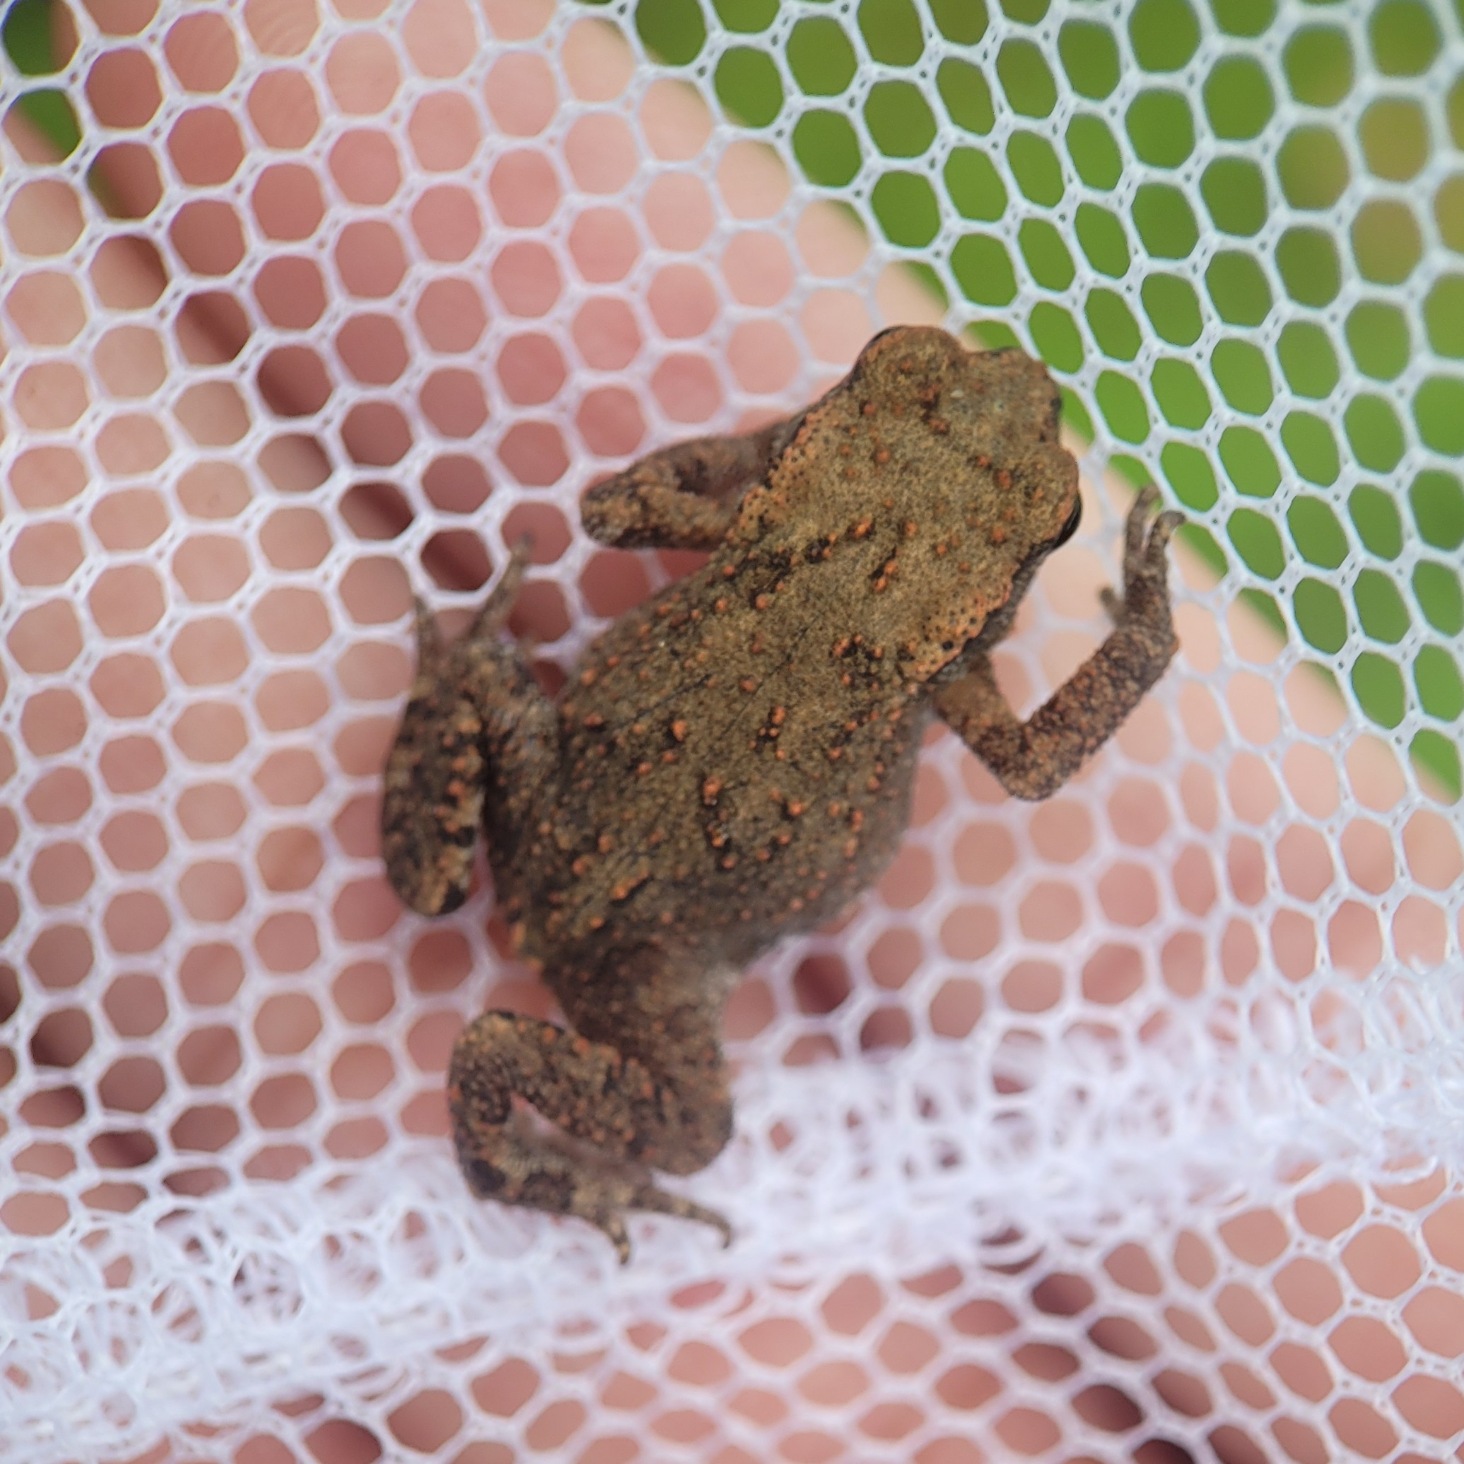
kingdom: Animalia
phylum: Chordata
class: Amphibia
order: Anura
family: Bufonidae
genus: Bufo
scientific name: Bufo bufo
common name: Skrubtudse
